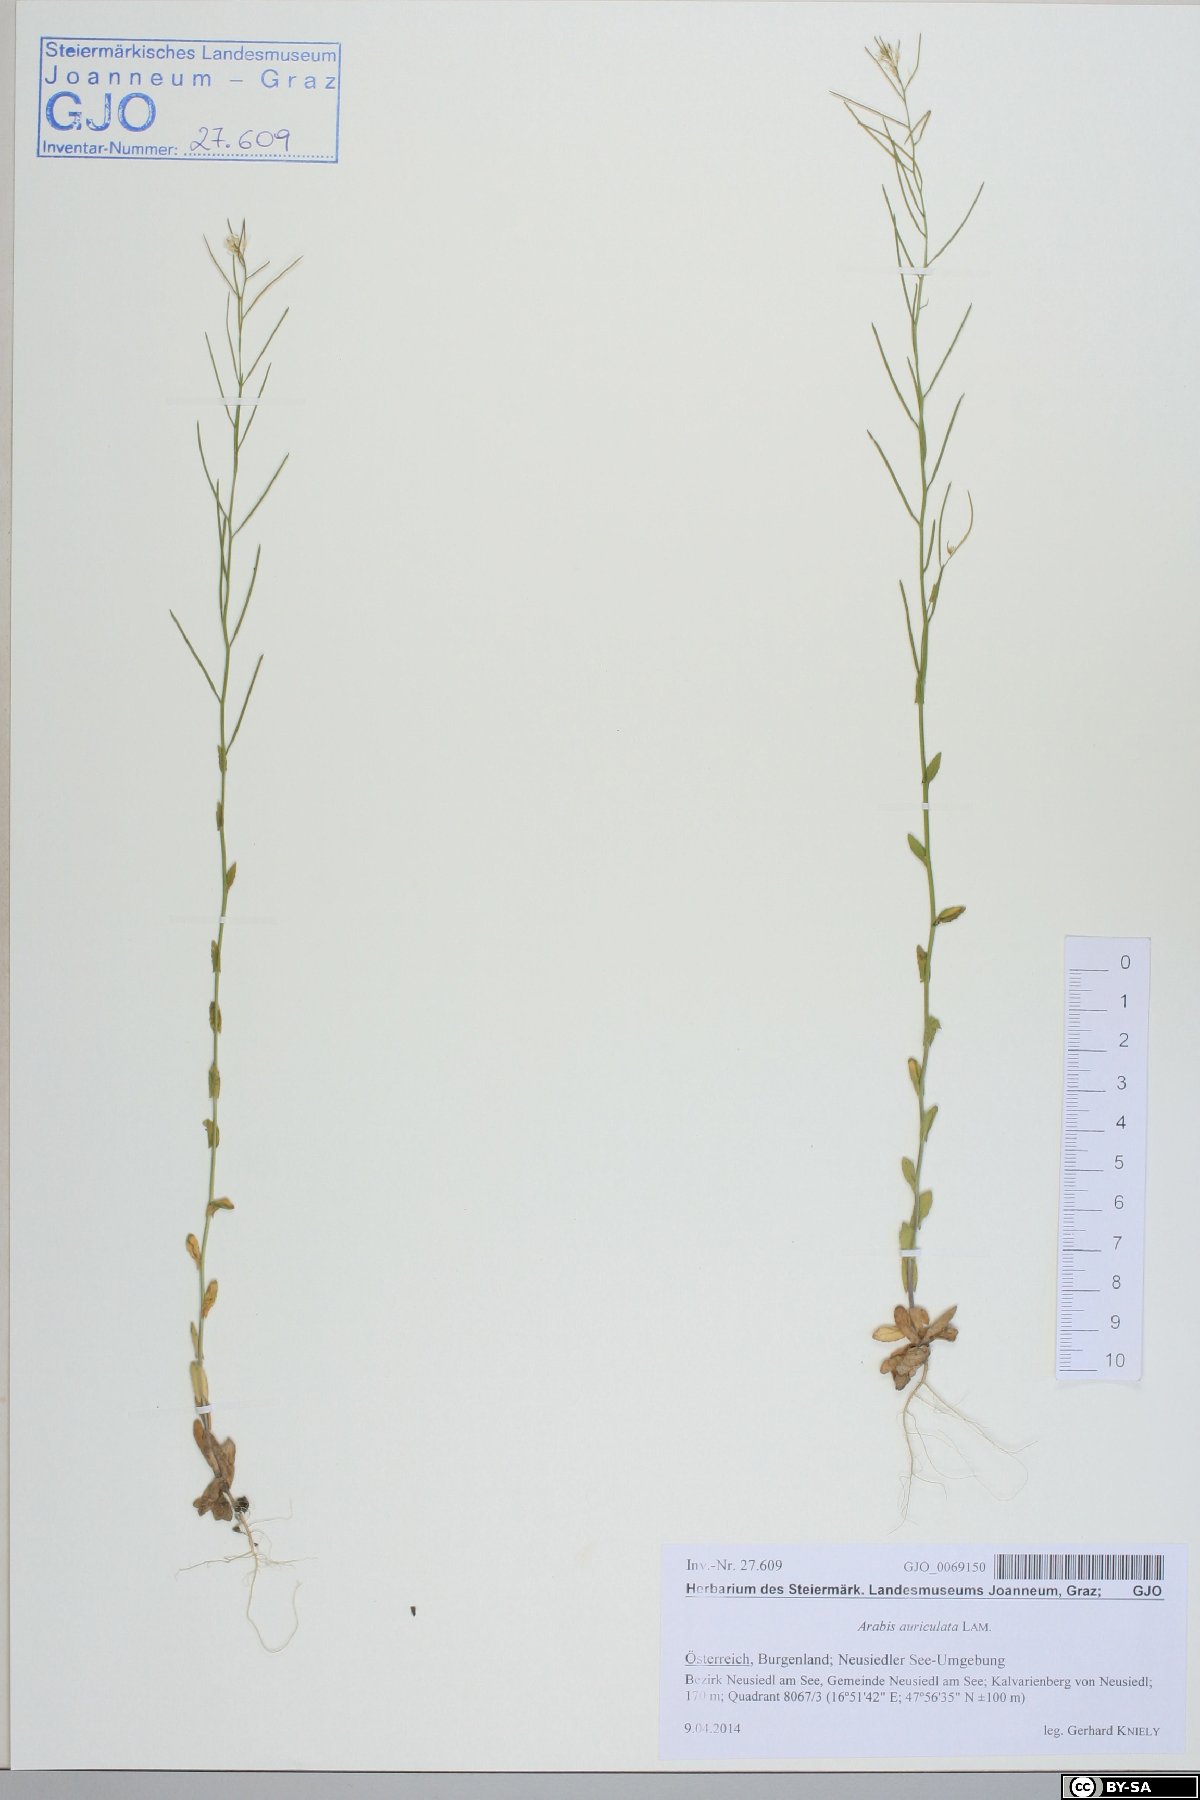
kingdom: Plantae
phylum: Tracheophyta
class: Magnoliopsida
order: Brassicales
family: Brassicaceae
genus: Arabis
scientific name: Arabis auriculata
